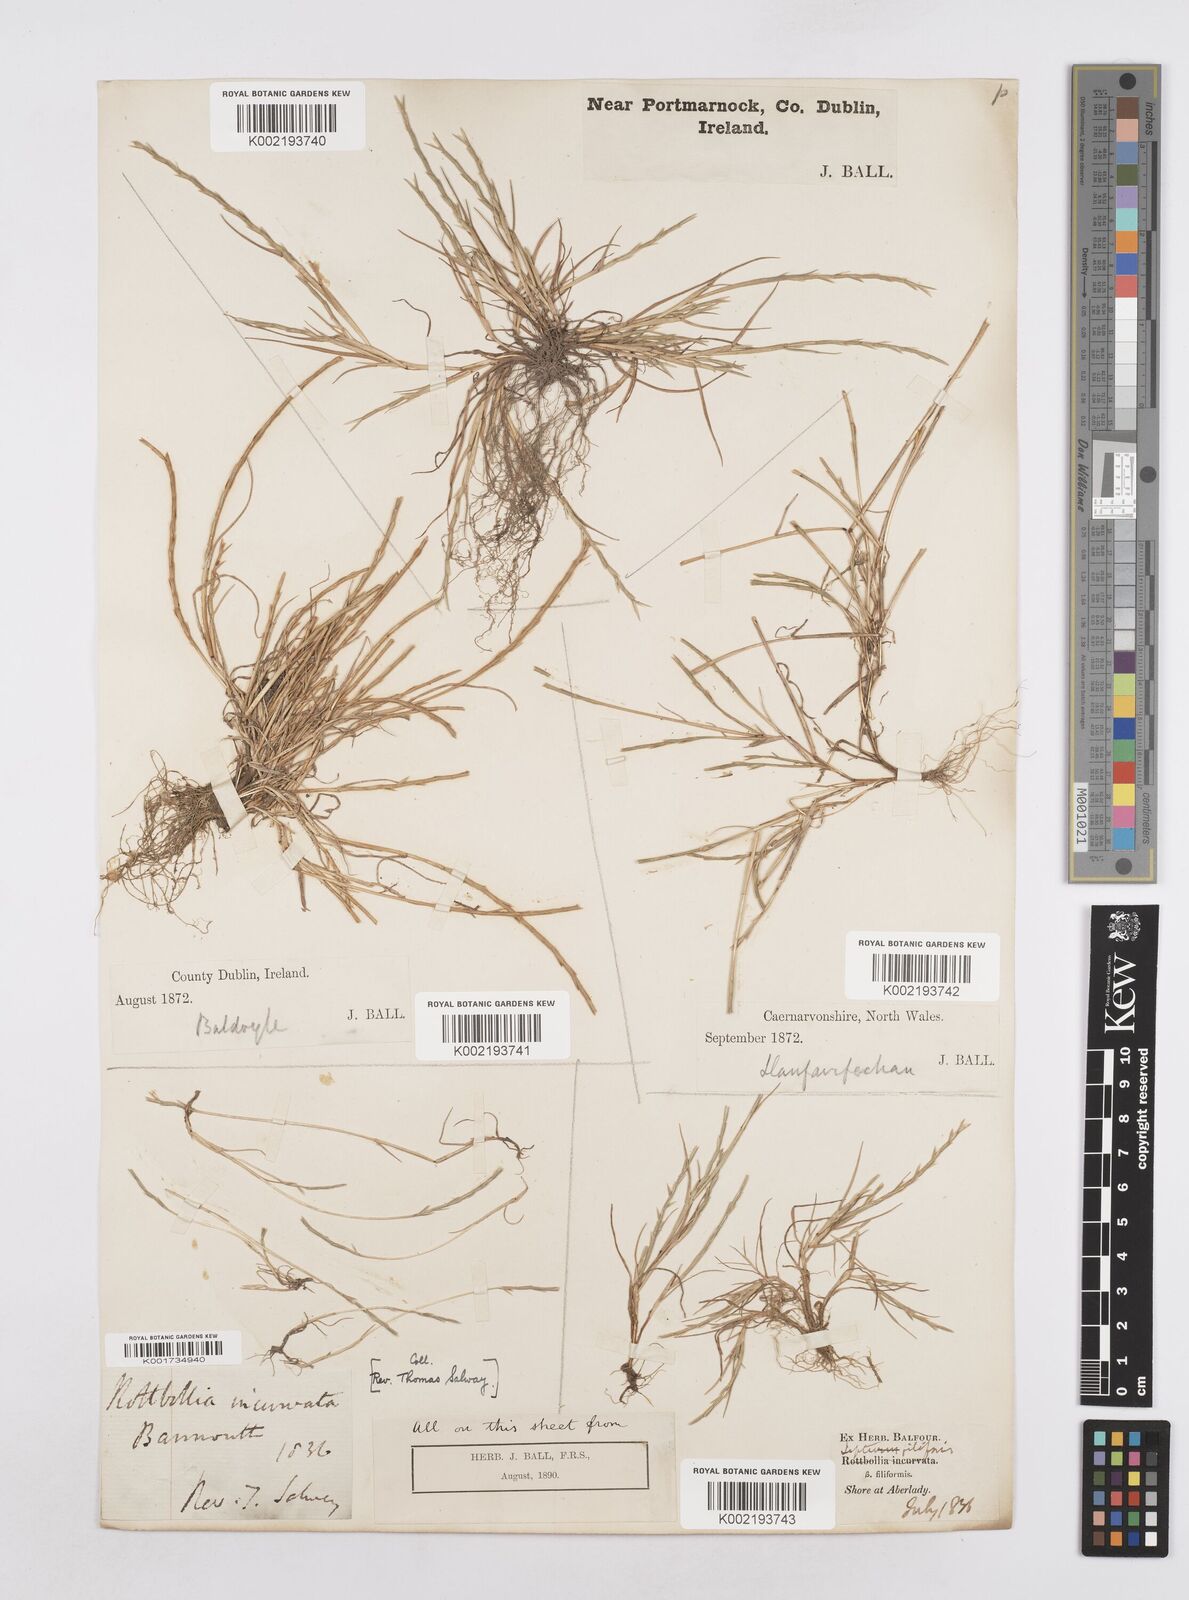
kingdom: Plantae
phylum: Tracheophyta
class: Liliopsida
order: Poales
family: Poaceae
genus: Parapholis
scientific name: Parapholis strigosa
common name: Hard-grass
